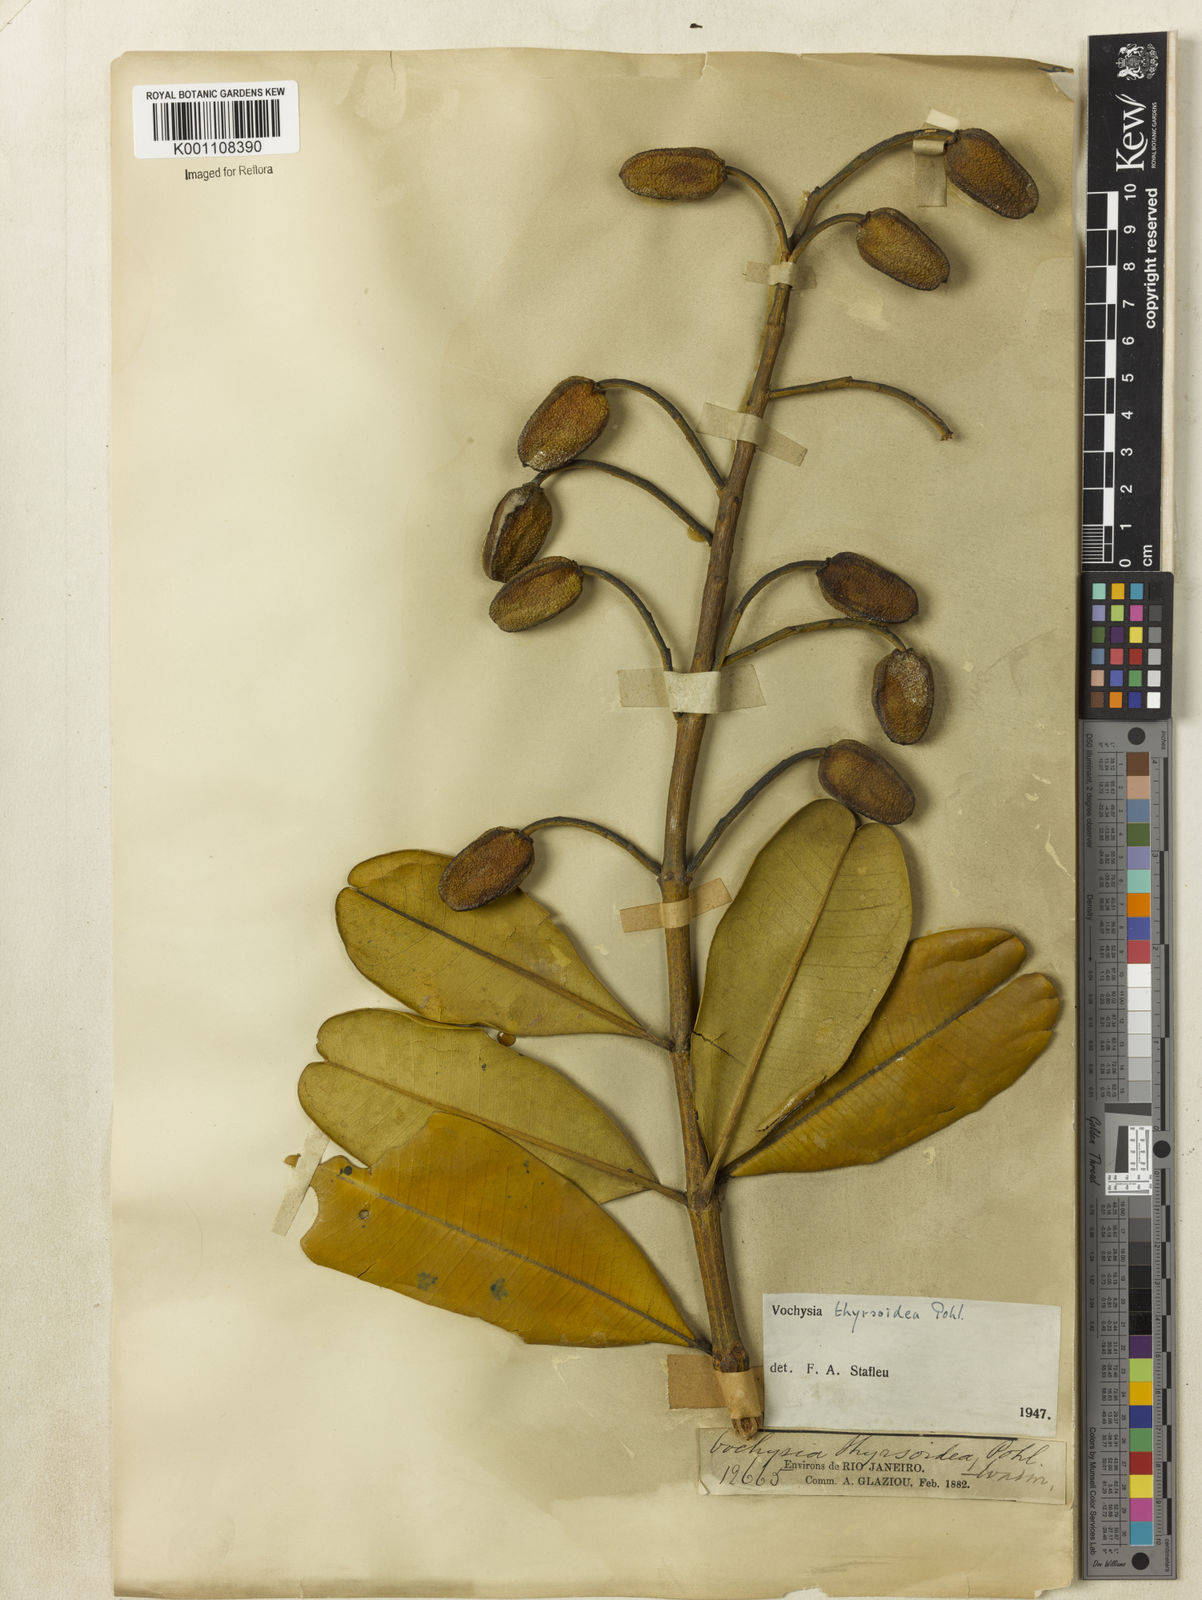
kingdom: Plantae
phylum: Tracheophyta
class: Magnoliopsida
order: Myrtales
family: Vochysiaceae
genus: Vochysia
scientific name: Vochysia thyrsoidea
